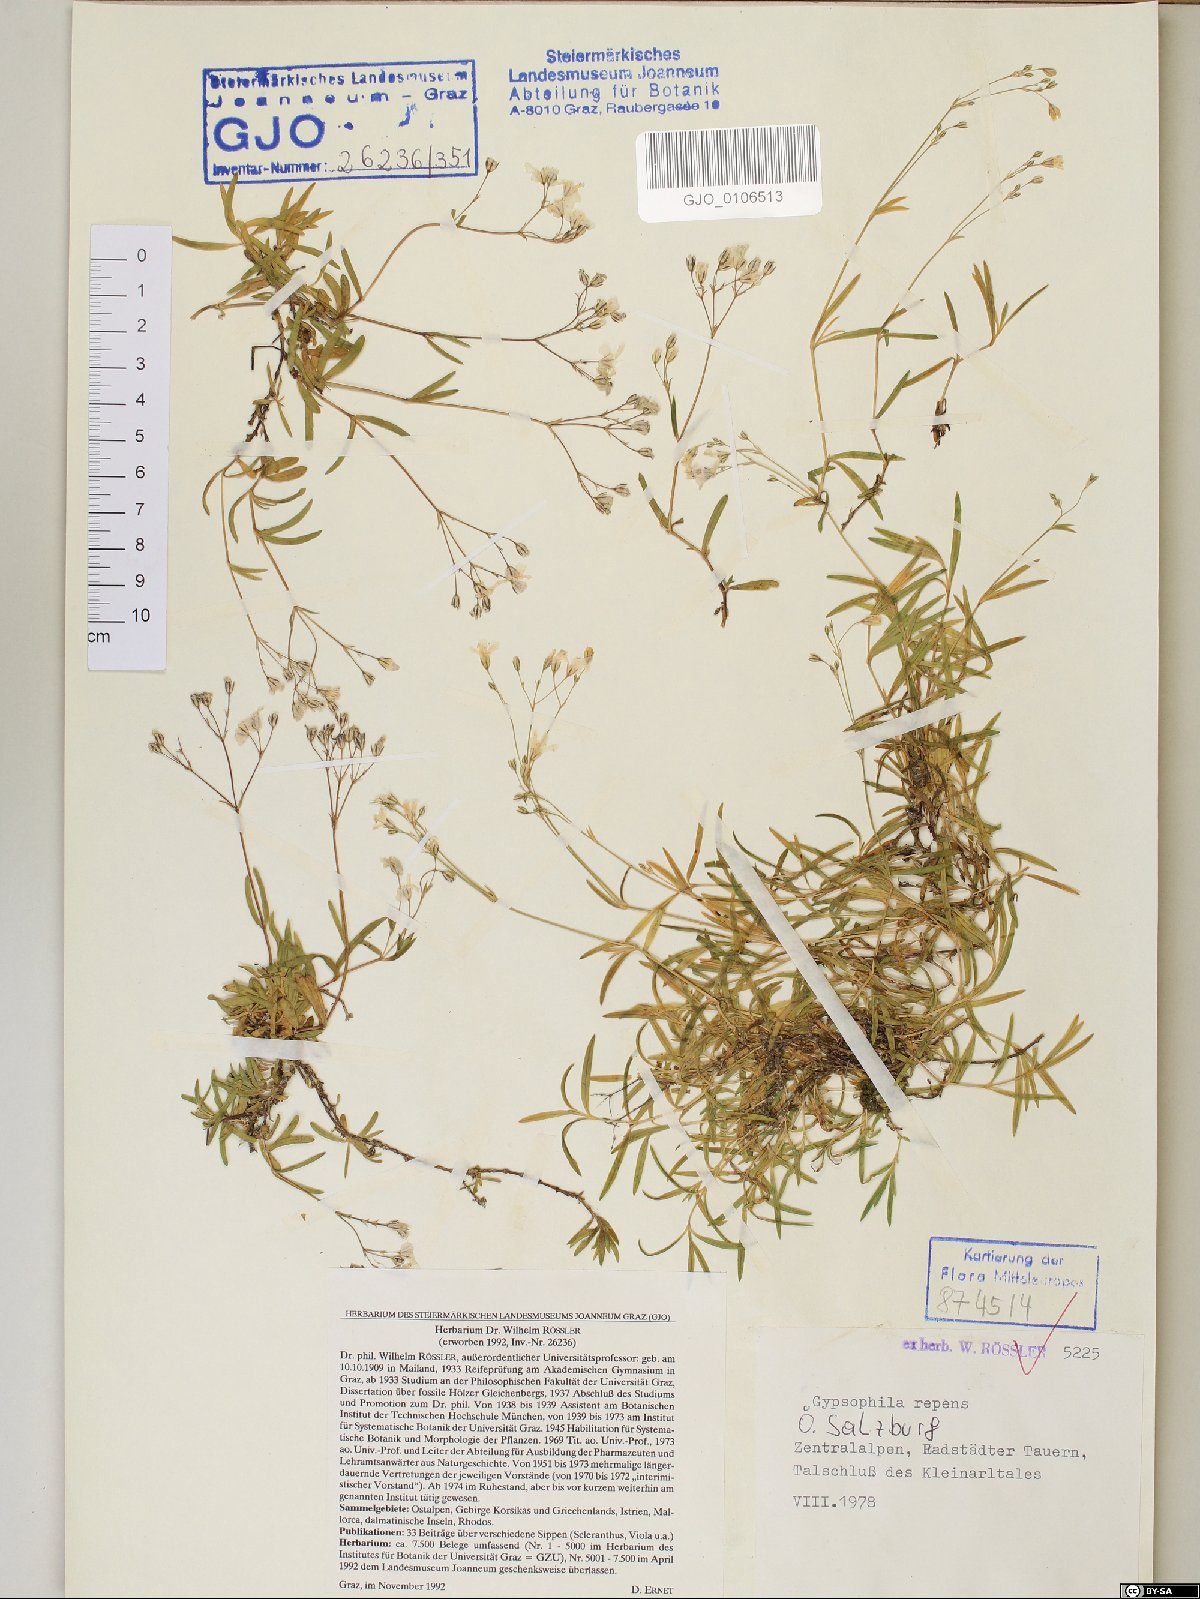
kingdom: Plantae
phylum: Tracheophyta
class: Magnoliopsida
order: Caryophyllales
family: Caryophyllaceae
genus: Gypsophila
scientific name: Gypsophila repens
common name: Creeping baby's-breath
